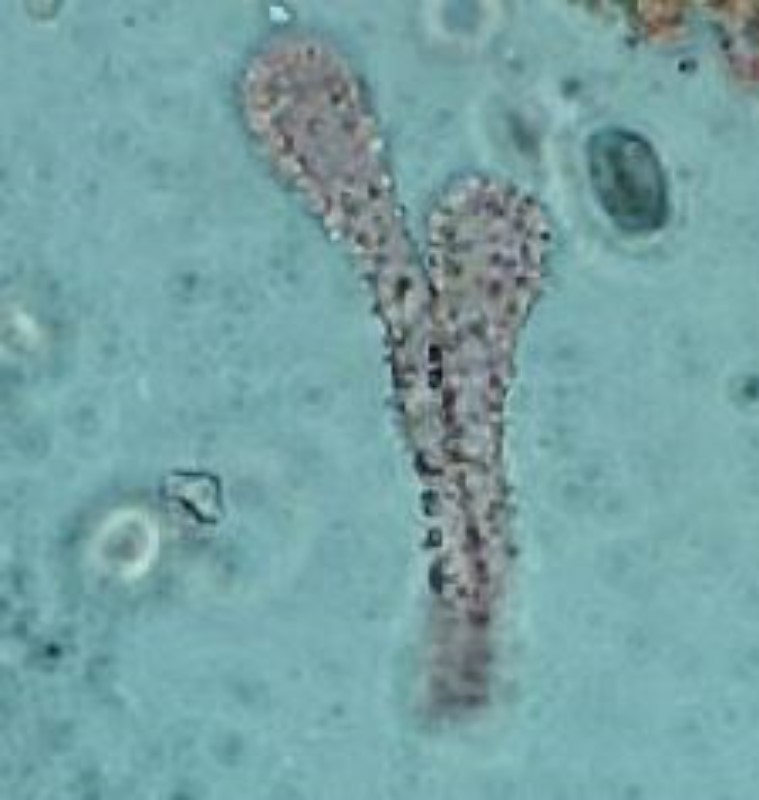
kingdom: Fungi
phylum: Basidiomycota
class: Agaricomycetes
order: Agaricales
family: Mycenaceae
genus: Mycena
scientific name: Mycena tenerrima
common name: pudret huesvamp
